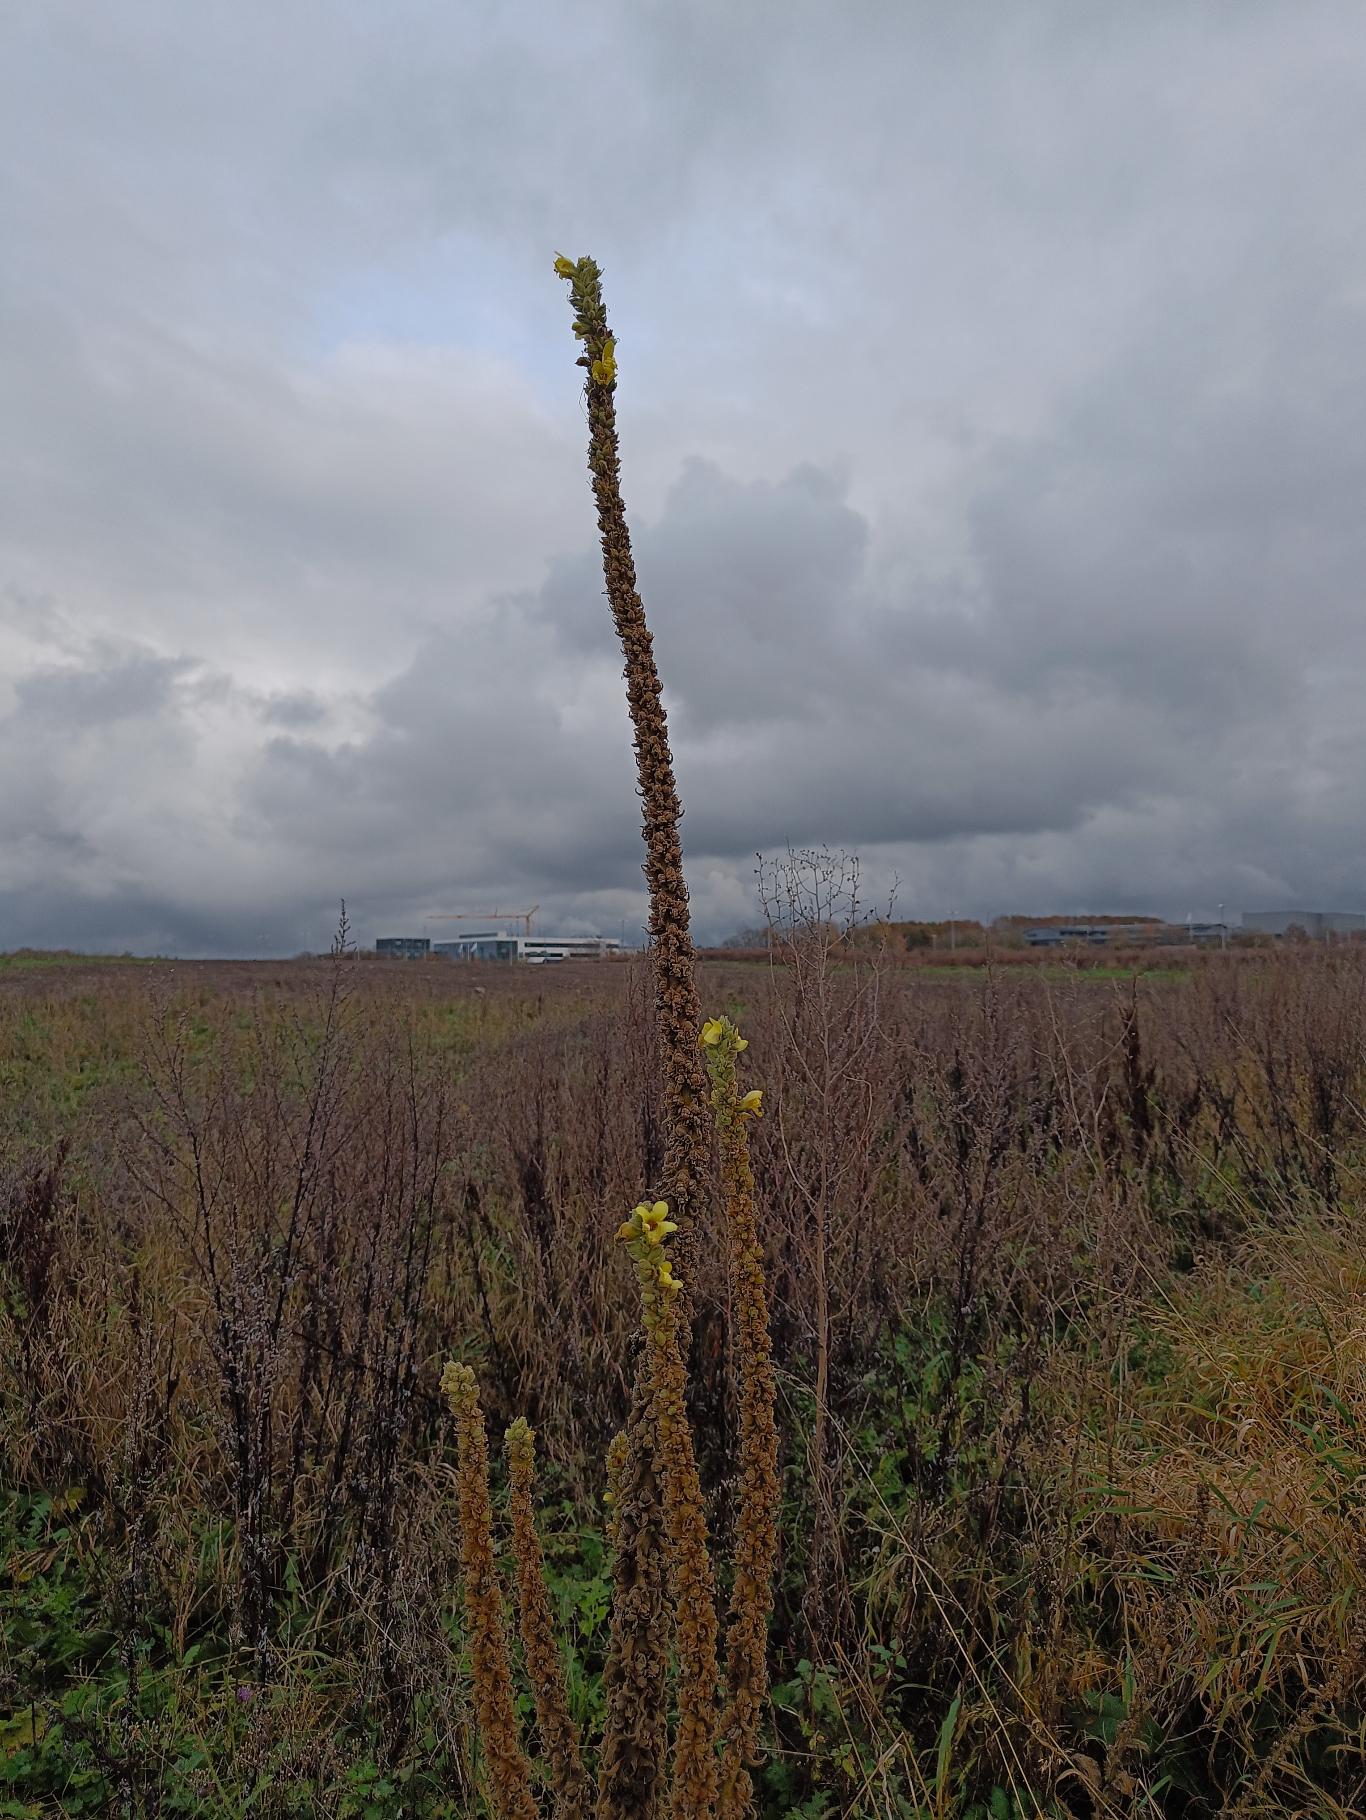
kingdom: Plantae
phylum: Tracheophyta
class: Magnoliopsida
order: Lamiales
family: Scrophulariaceae
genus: Verbascum
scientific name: Verbascum nigrum
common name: Mørk kongelys
